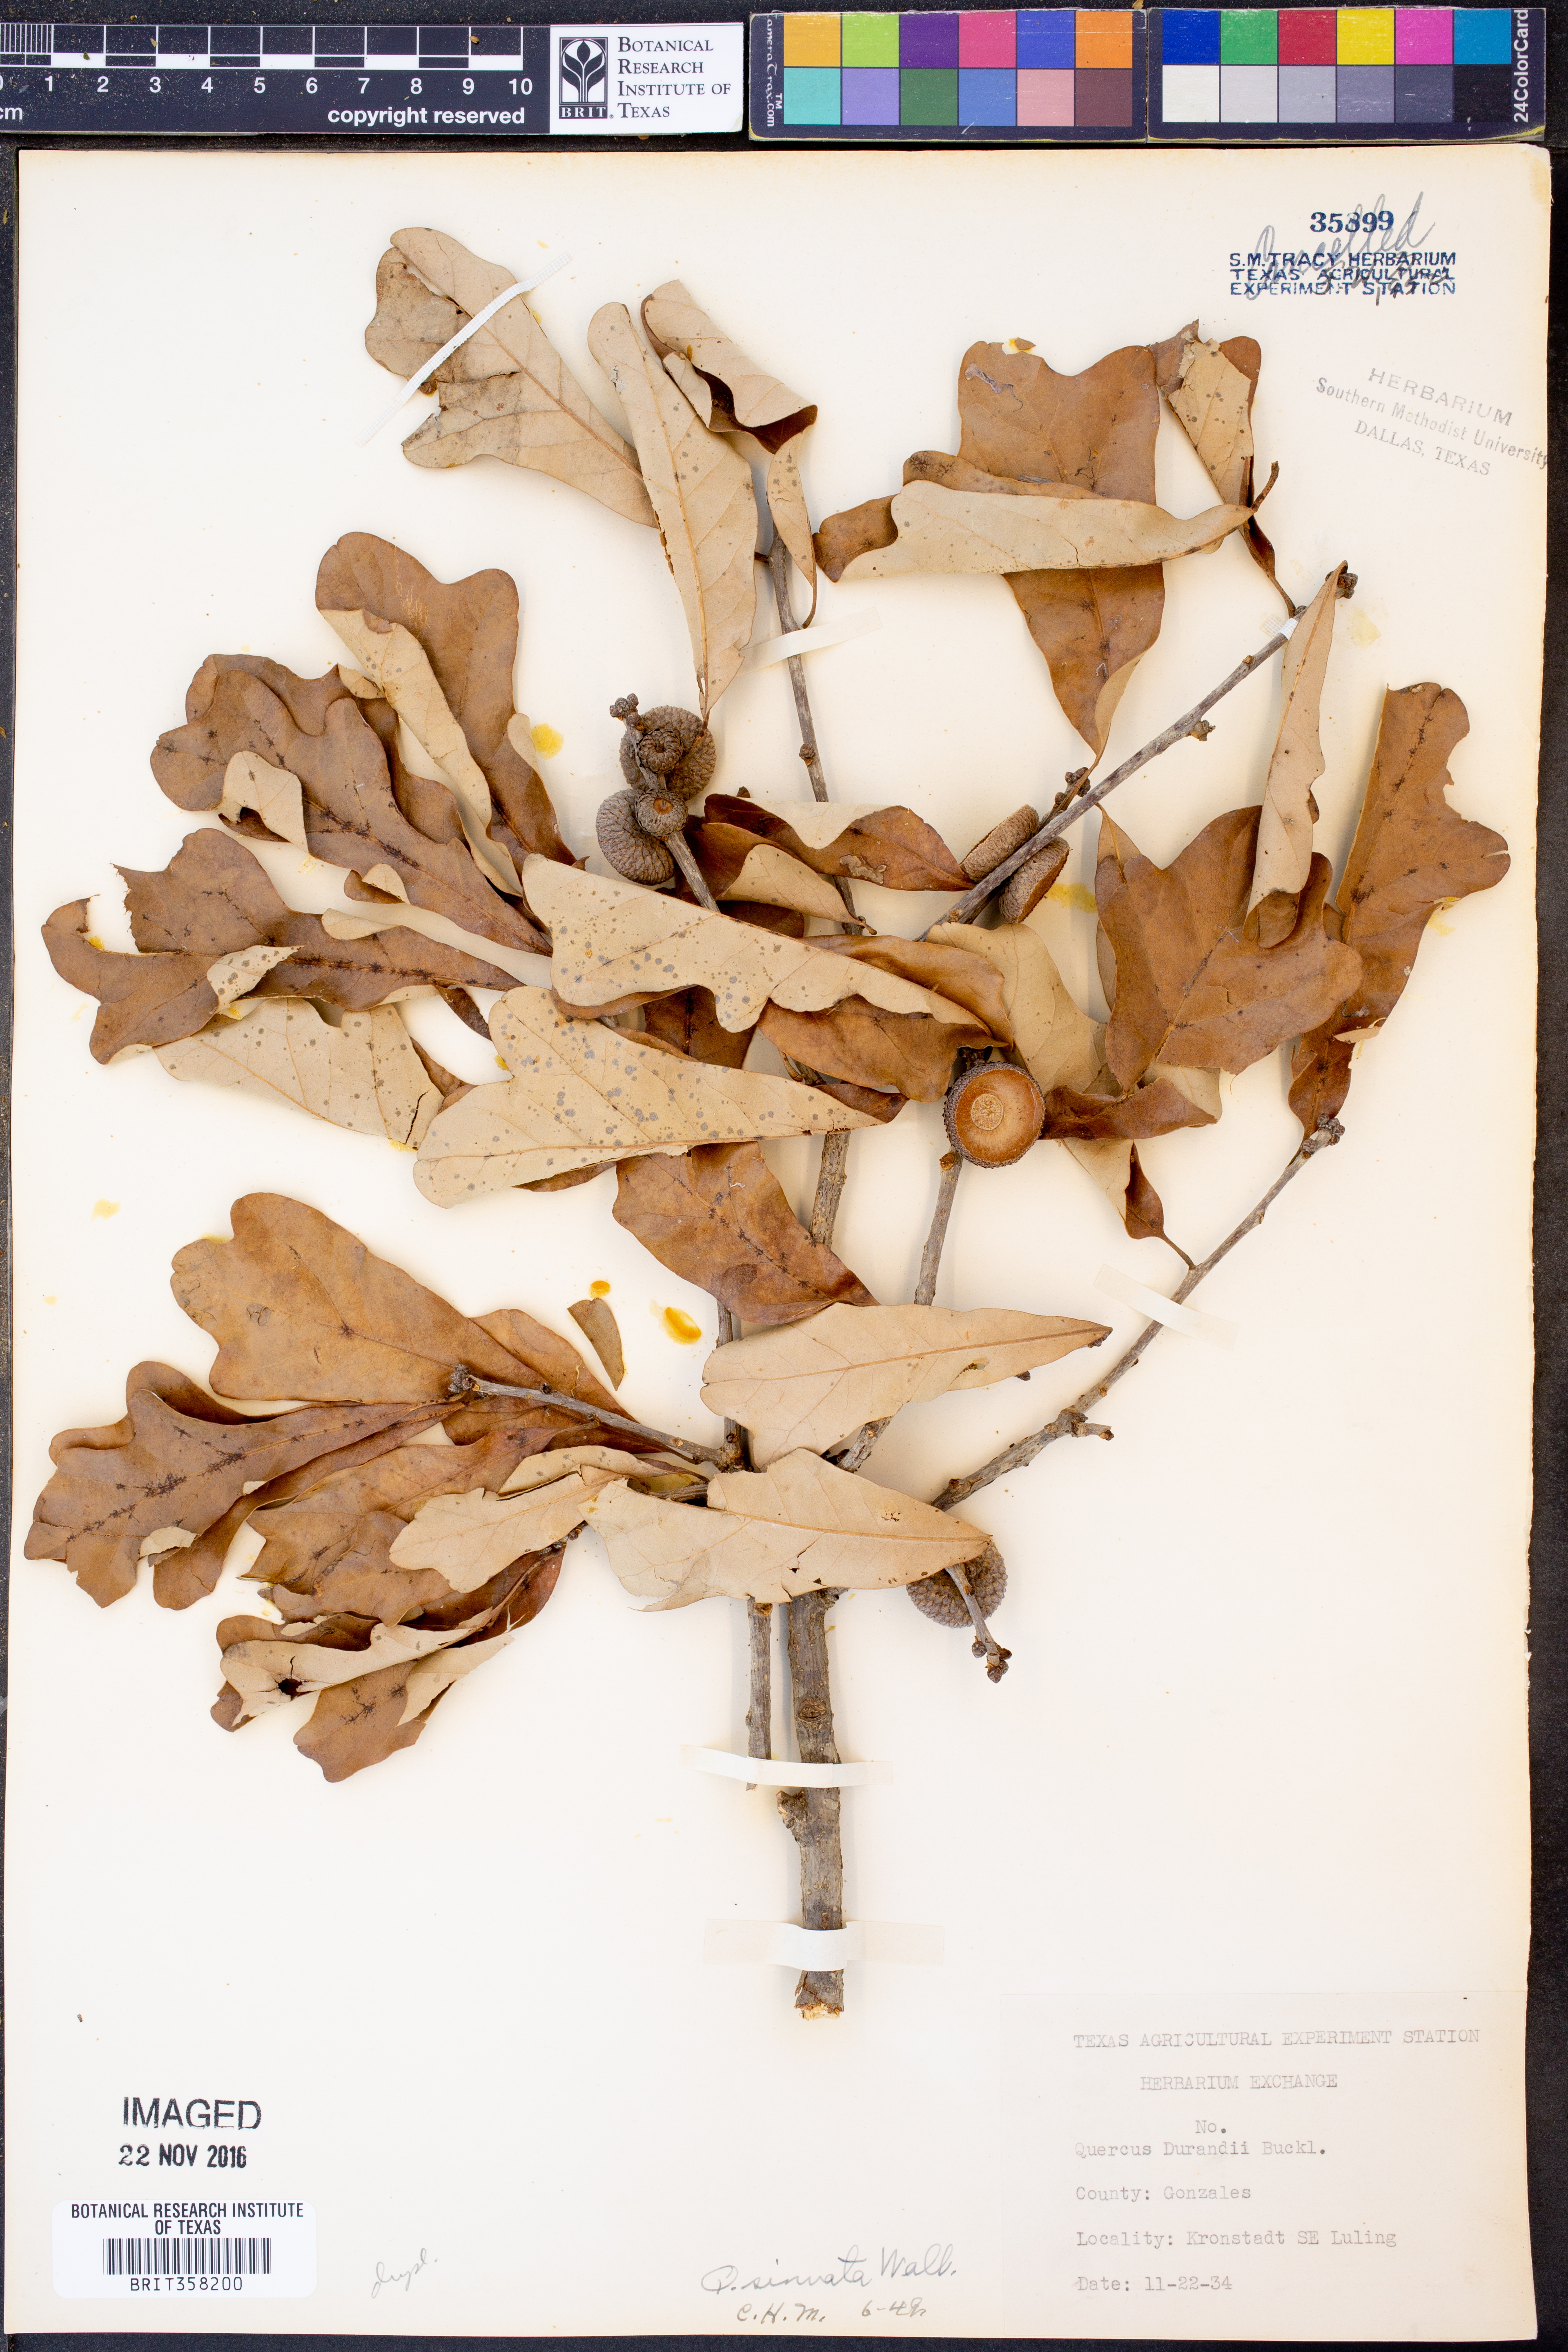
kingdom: Plantae
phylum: Tracheophyta
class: Magnoliopsida
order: Fagales
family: Fagaceae
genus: Quercus
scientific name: Quercus sinuata
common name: Durand oak
